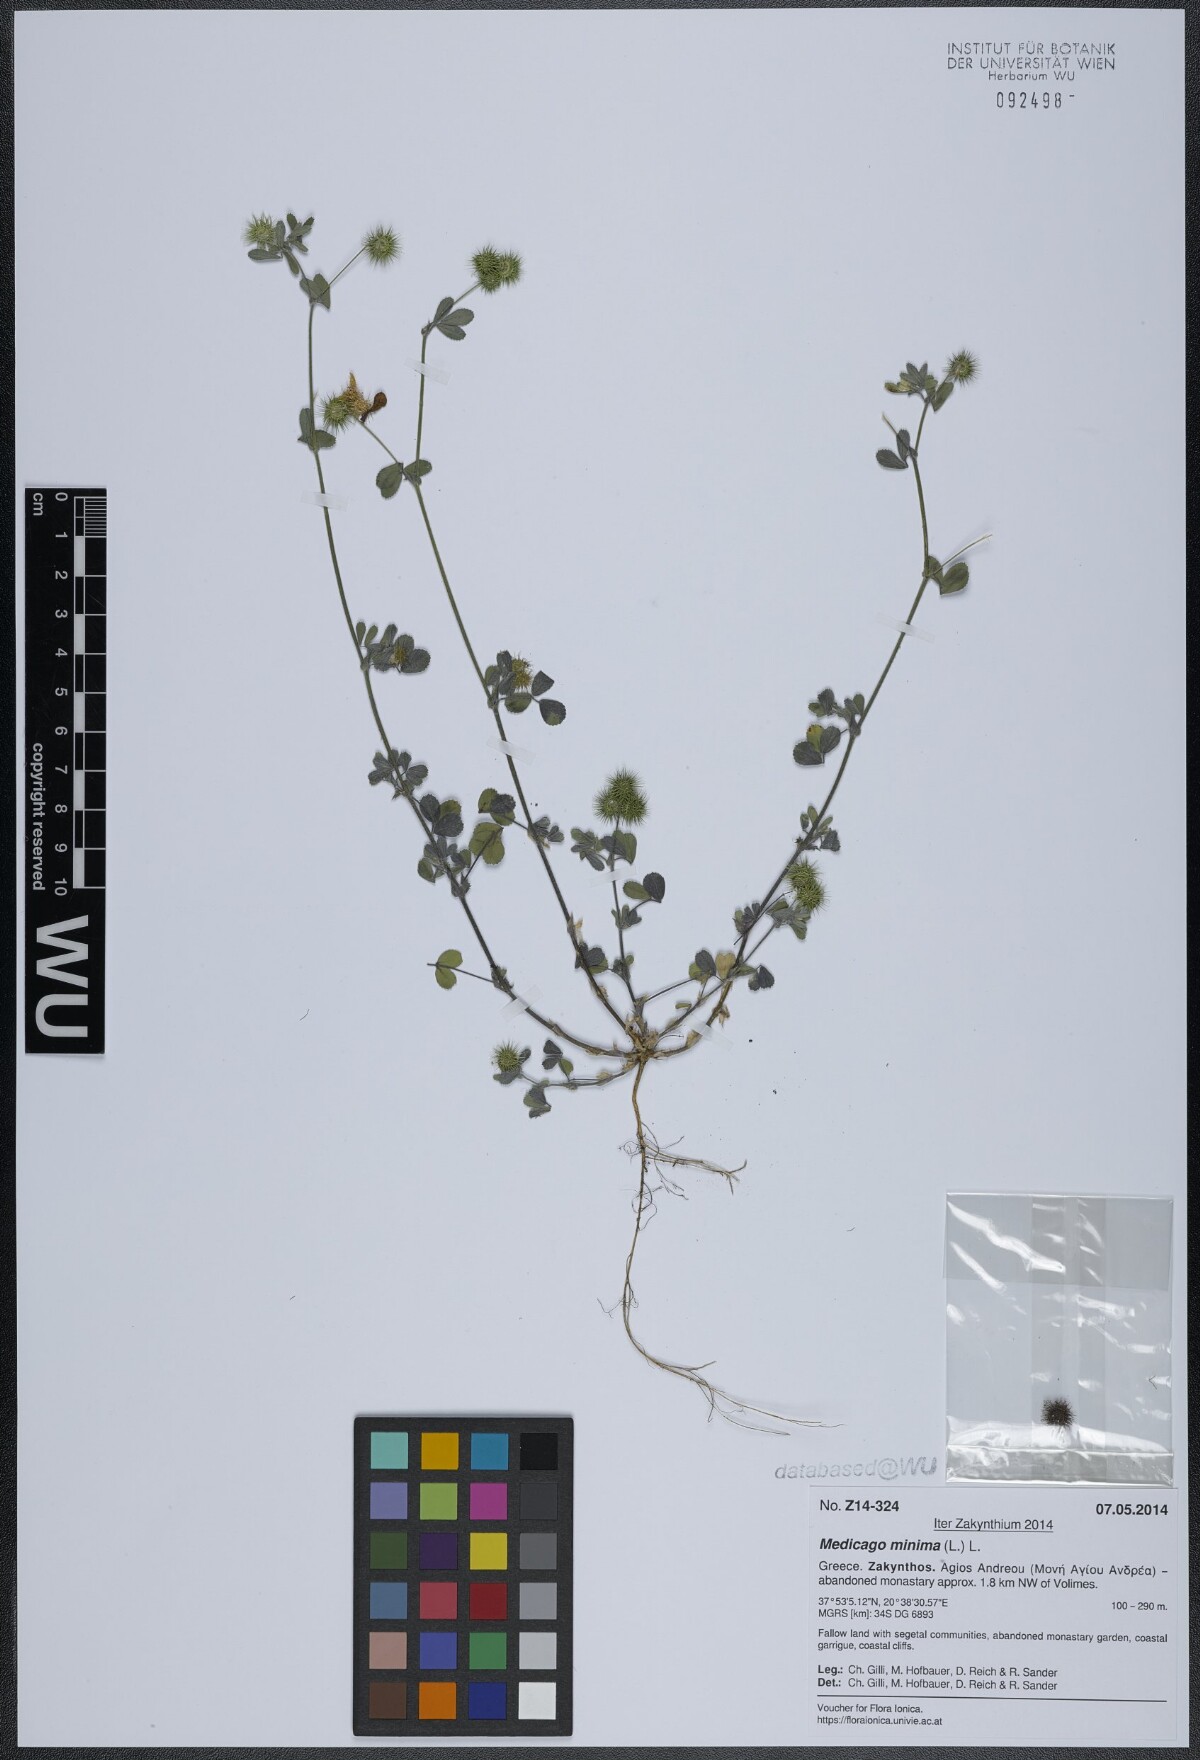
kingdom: Plantae
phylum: Tracheophyta
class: Magnoliopsida
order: Fabales
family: Fabaceae
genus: Medicago
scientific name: Medicago minima
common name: Little bur-clover
